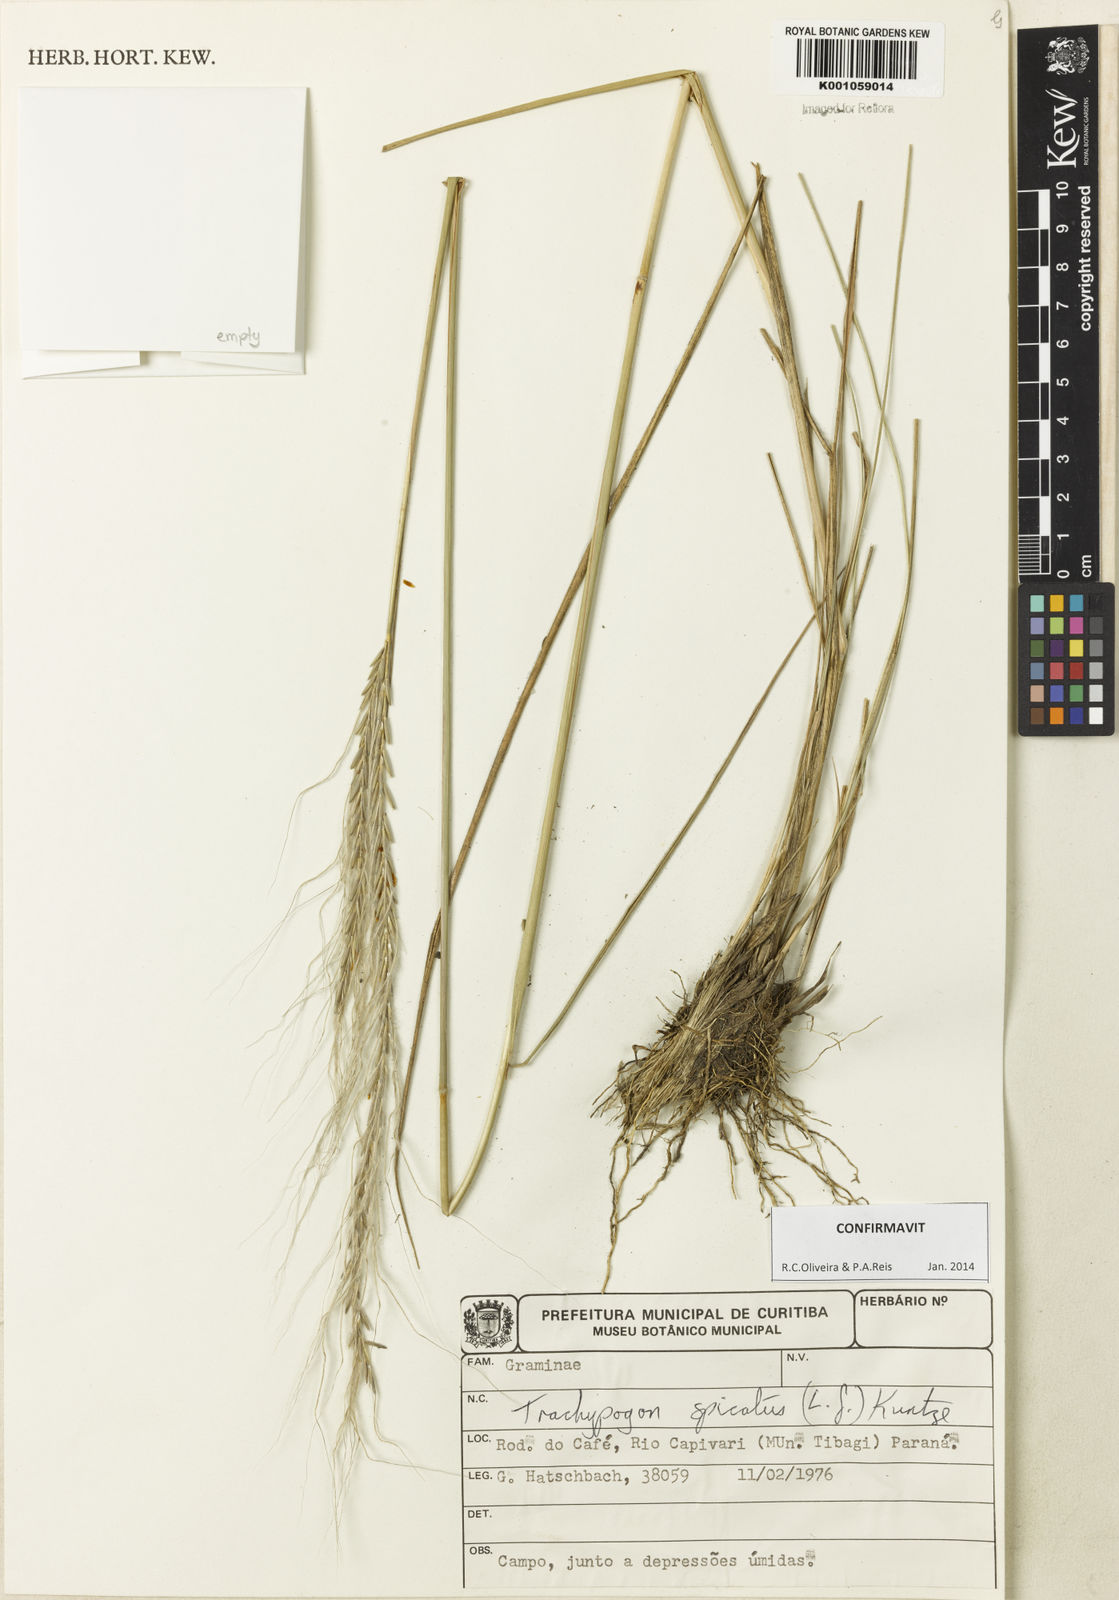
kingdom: Plantae
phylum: Tracheophyta
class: Liliopsida
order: Poales
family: Poaceae
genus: Trachypogon
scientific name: Trachypogon spicatus
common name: Crinkle-awn
